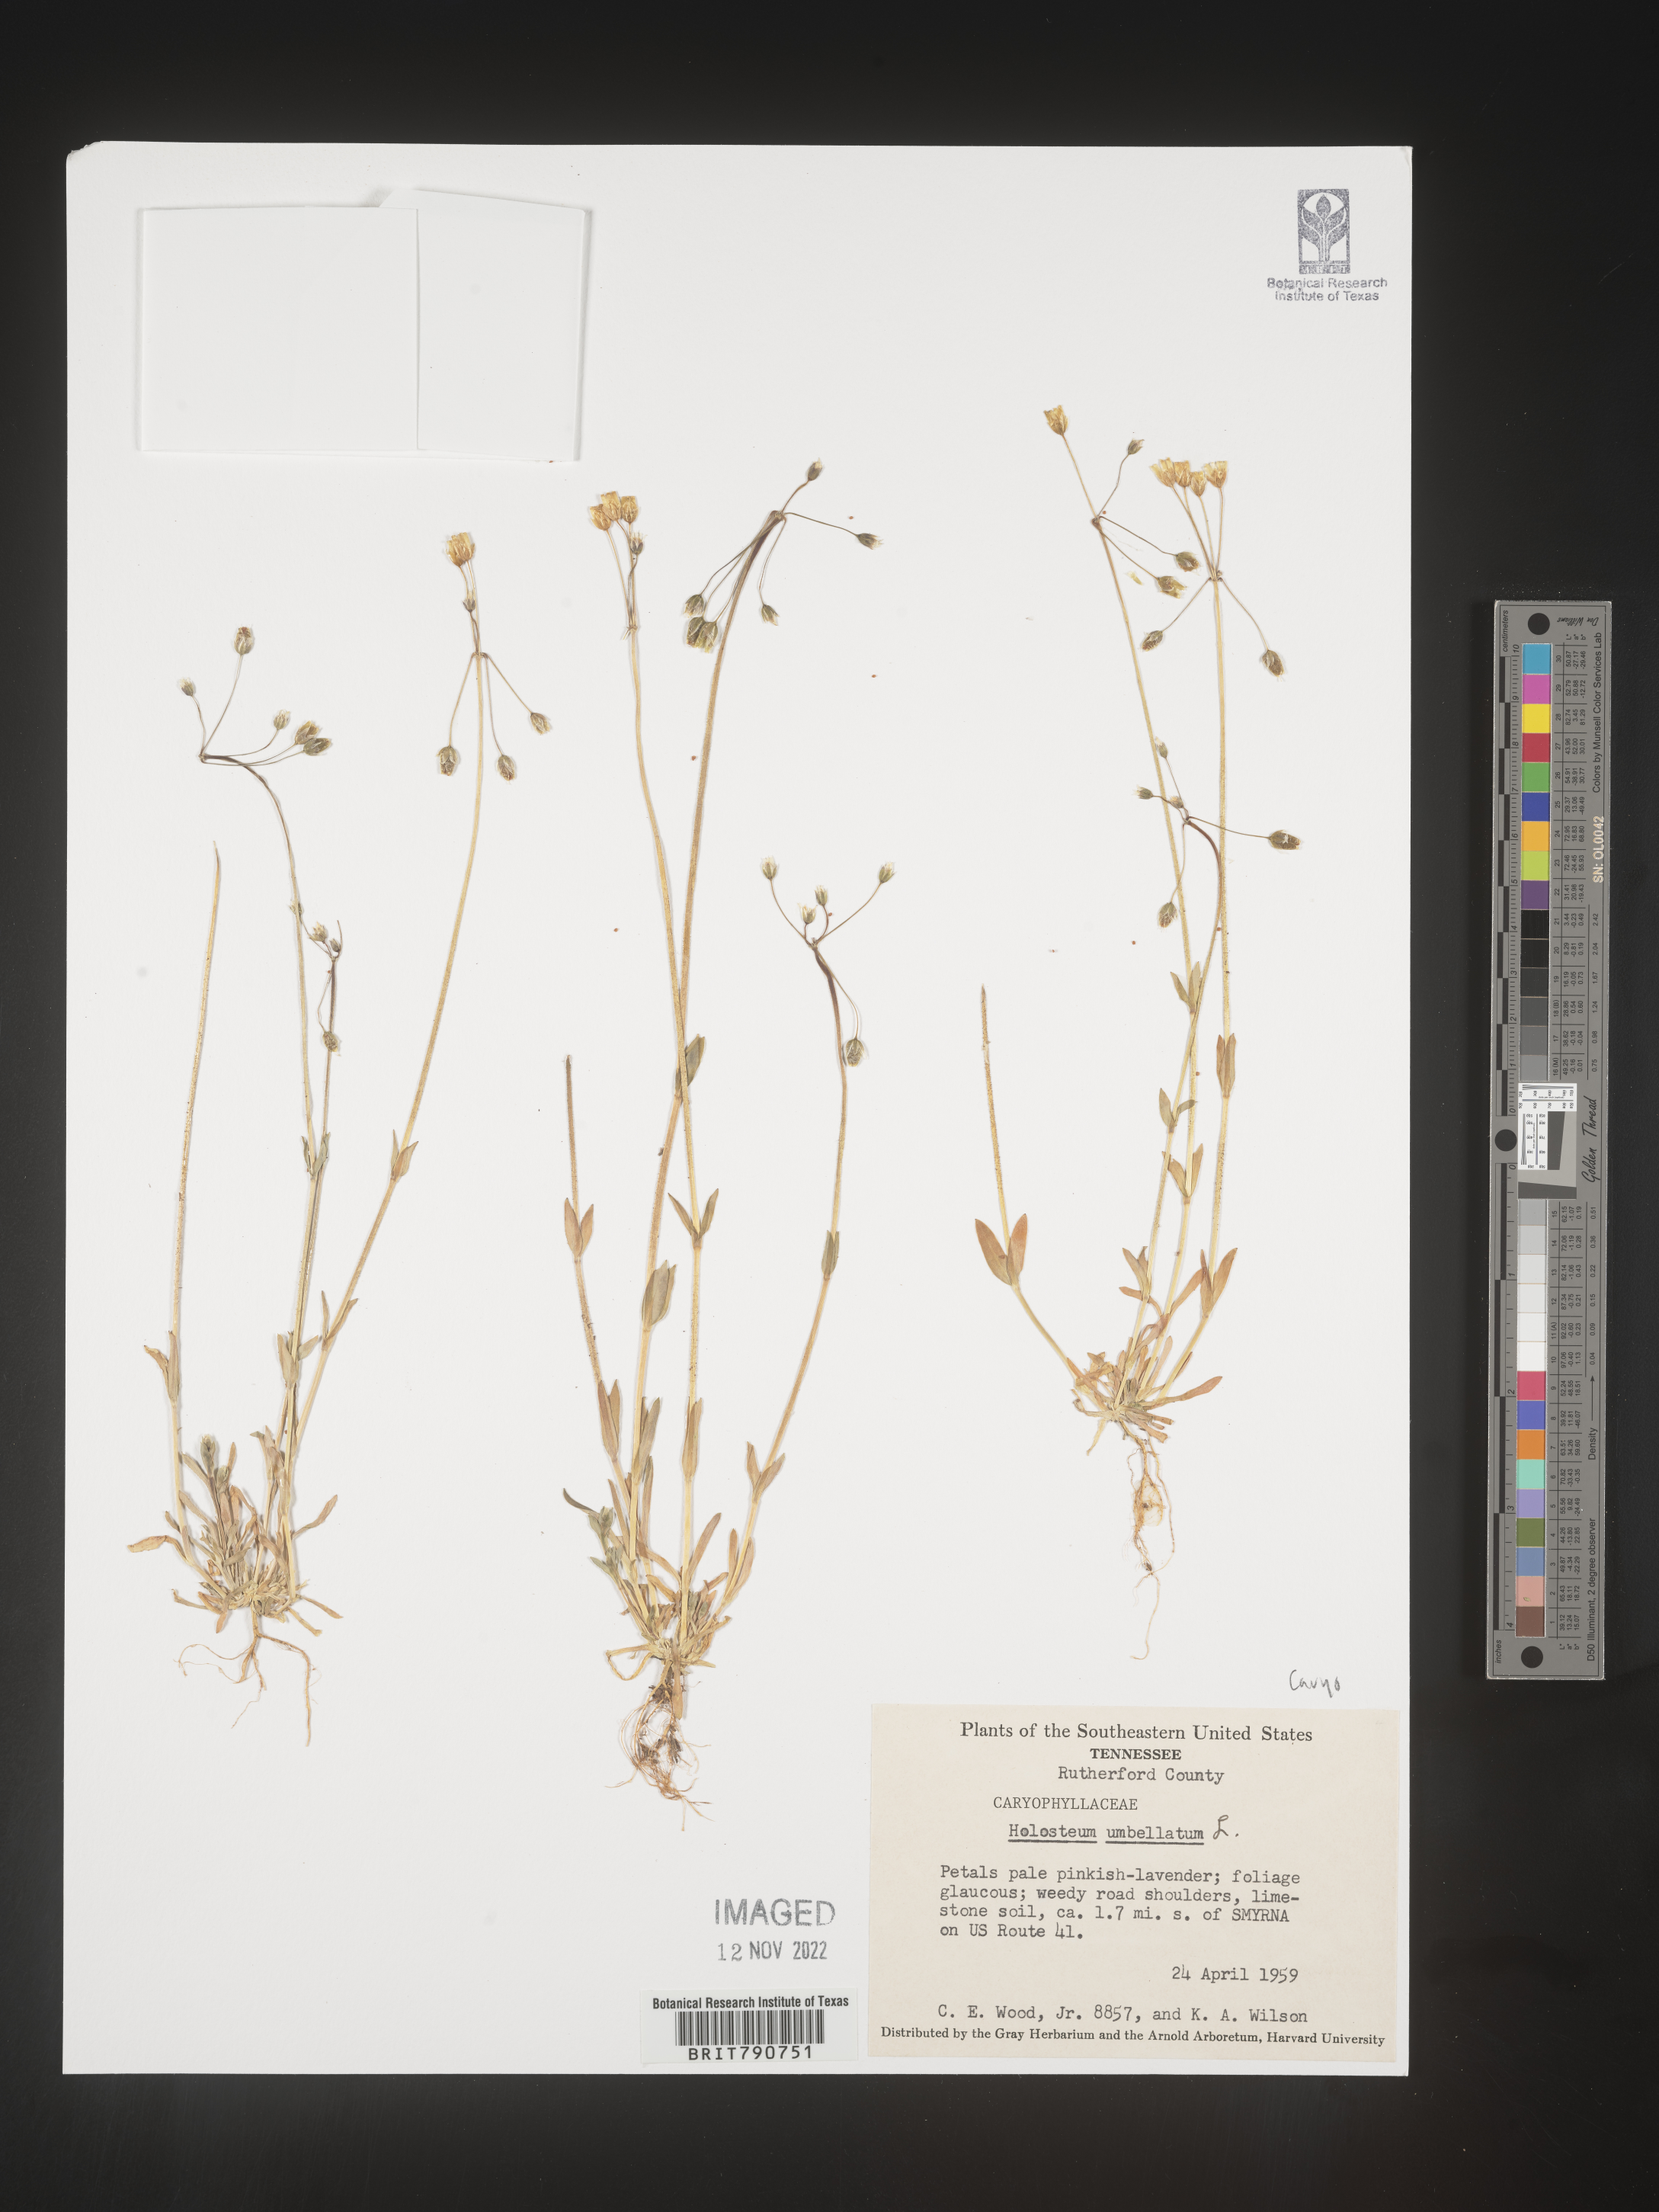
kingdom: Plantae
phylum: Tracheophyta
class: Magnoliopsida
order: Caryophyllales
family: Caryophyllaceae
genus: Holosteum
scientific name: Holosteum
